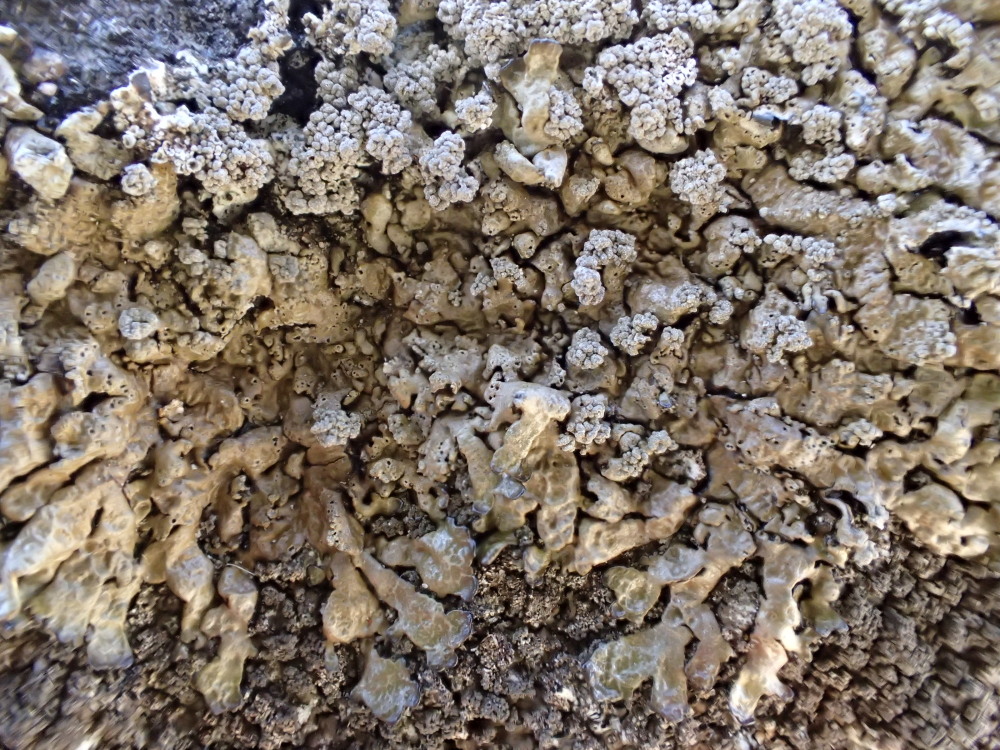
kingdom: Fungi
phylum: Ascomycota
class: Lecanoromycetes
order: Lecanorales
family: Parmeliaceae
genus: Xanthoparmelia
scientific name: Xanthoparmelia loxodes
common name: knudret skållav
